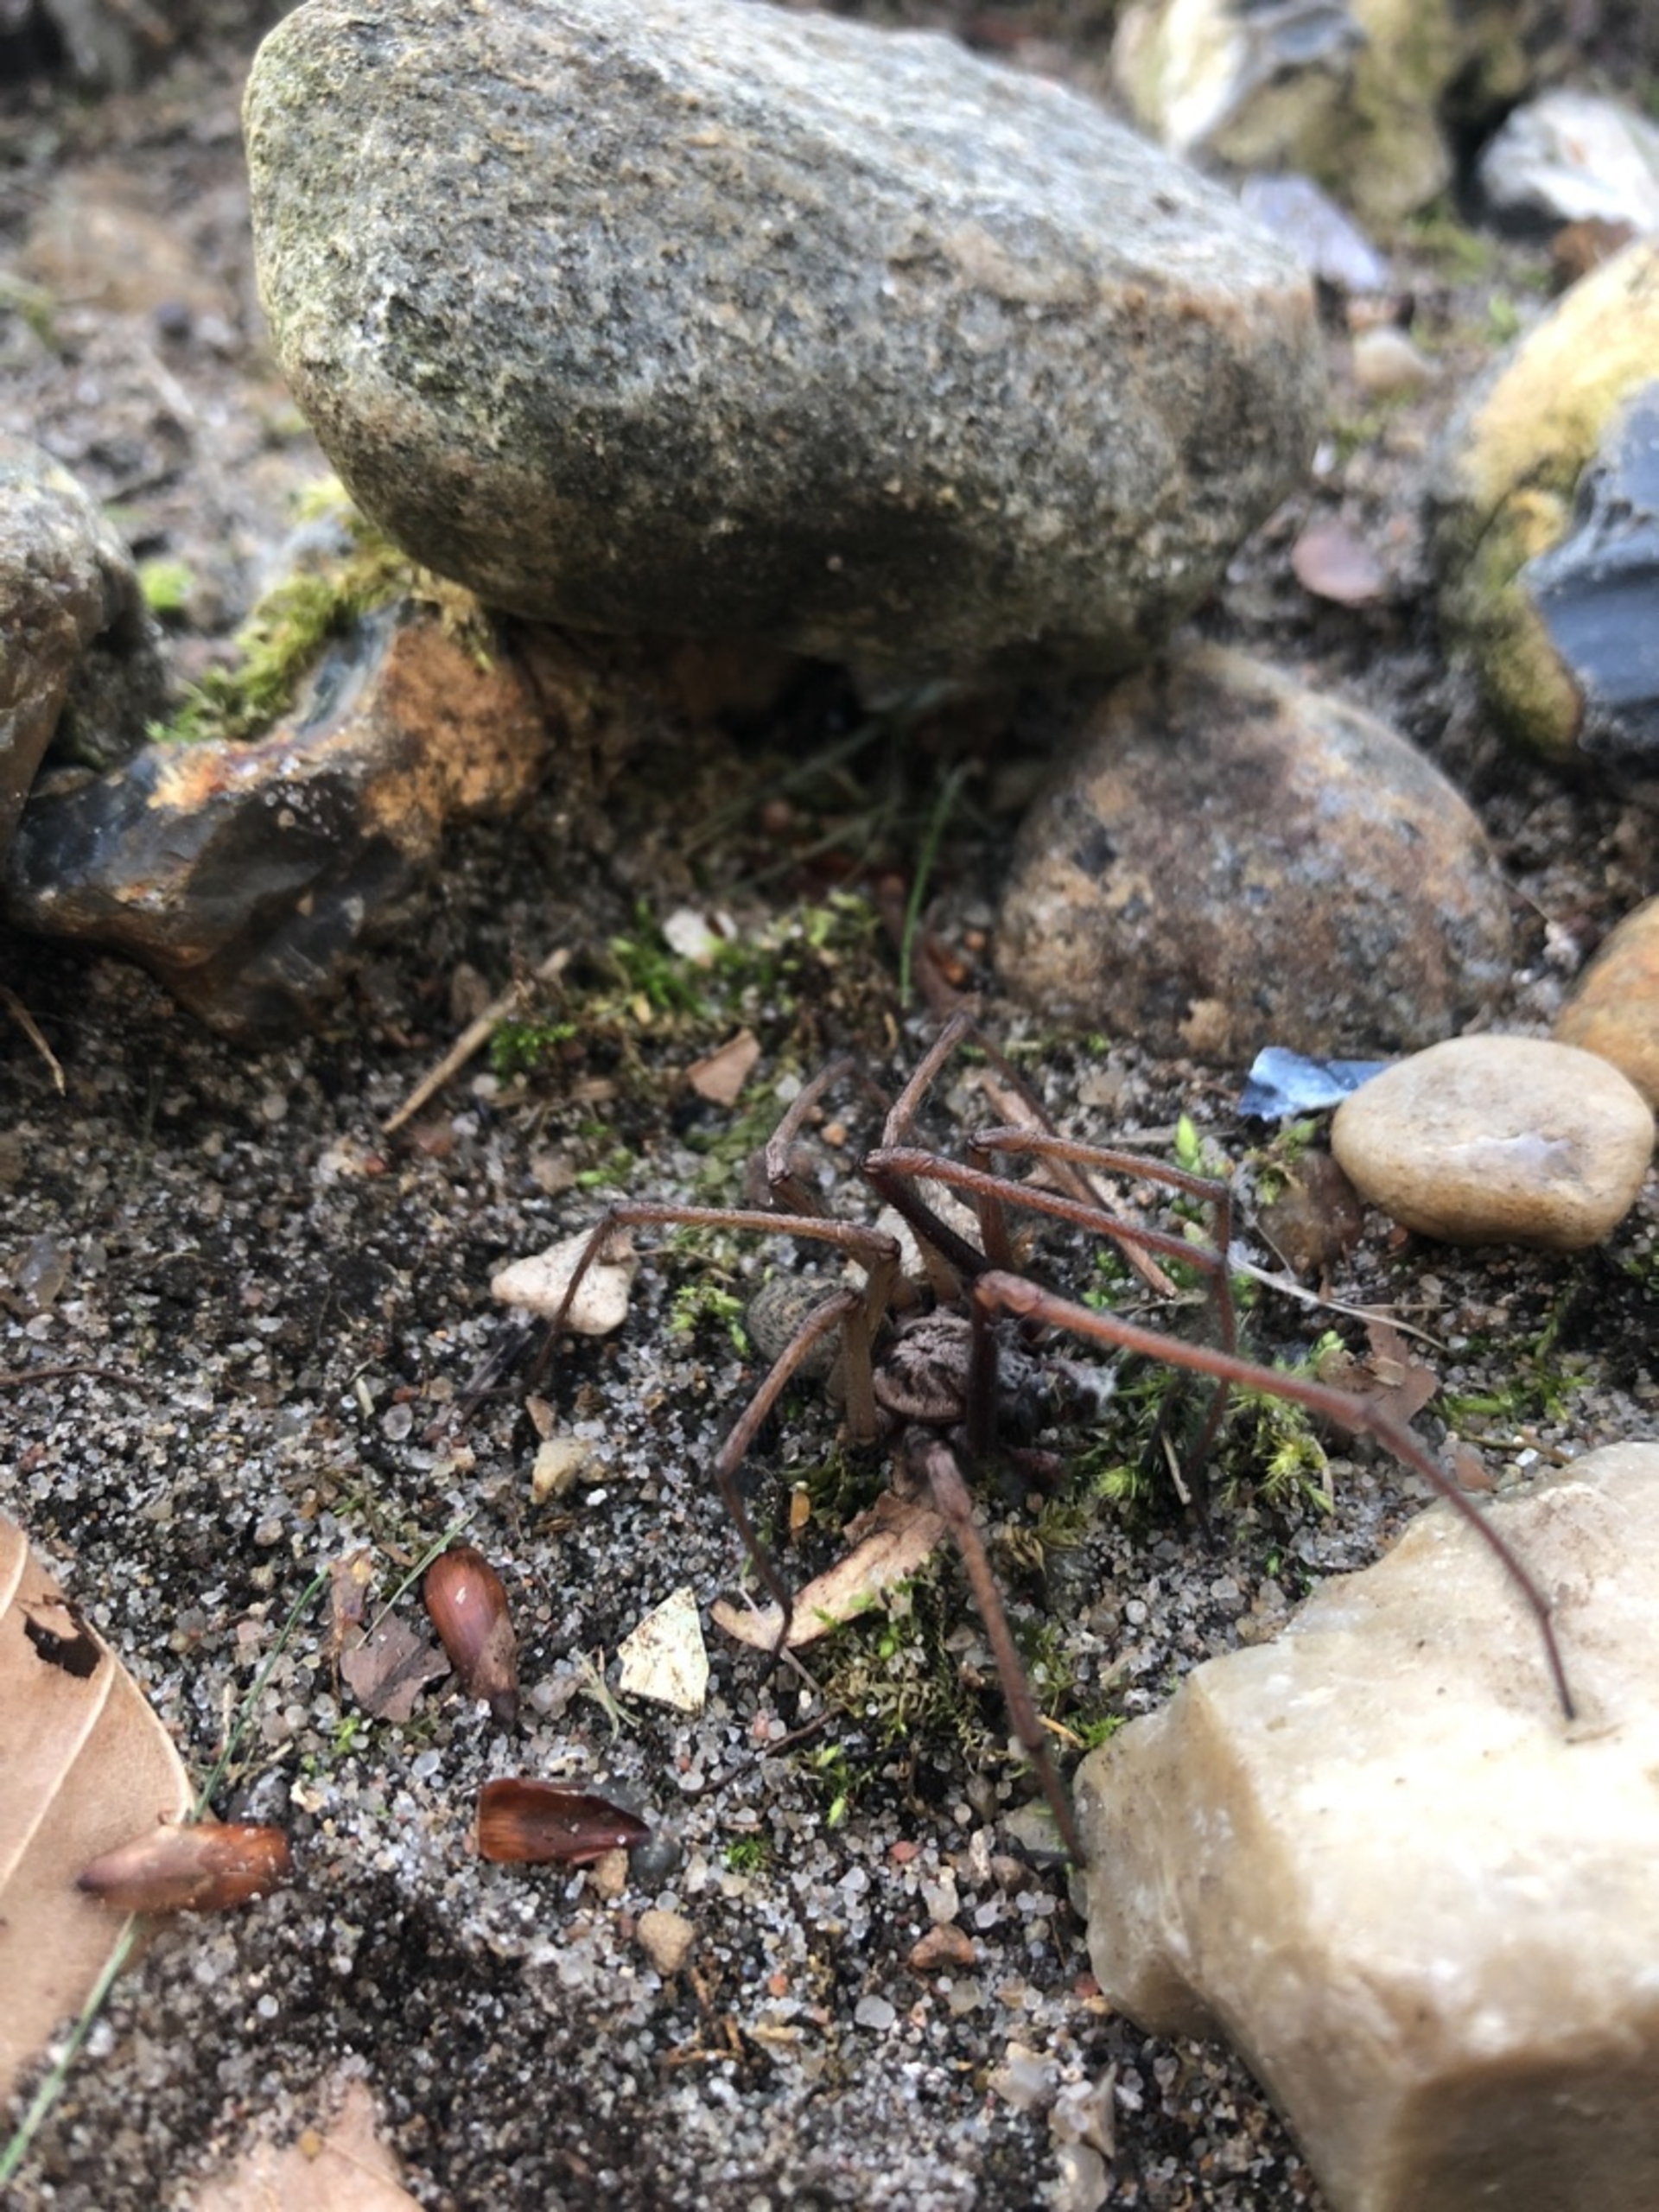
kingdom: Animalia
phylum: Arthropoda
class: Arachnida
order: Araneae
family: Agelenidae
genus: Eratigena
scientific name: Eratigena atrica
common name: Stor husedderkop
